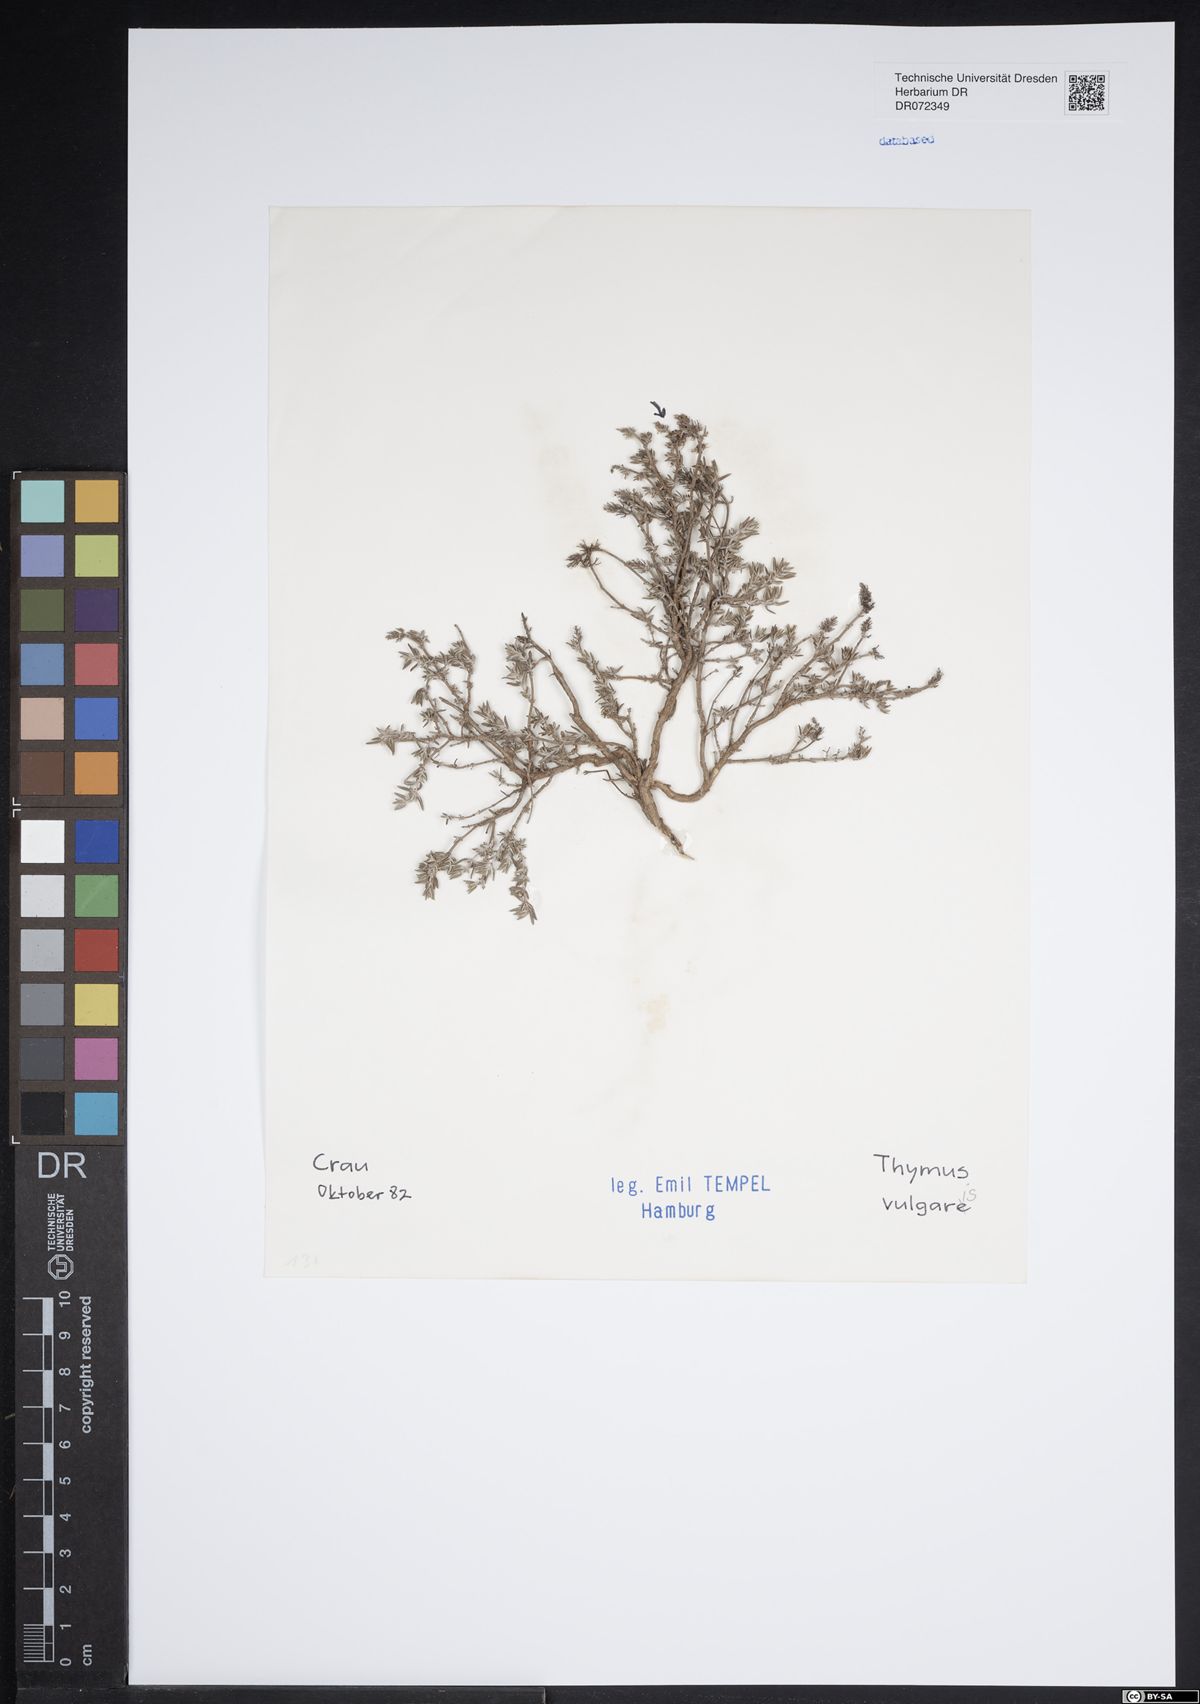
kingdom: Plantae
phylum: Tracheophyta
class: Magnoliopsida
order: Lamiales
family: Lamiaceae
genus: Thymus
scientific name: Thymus vulgaris
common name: Garden thyme
